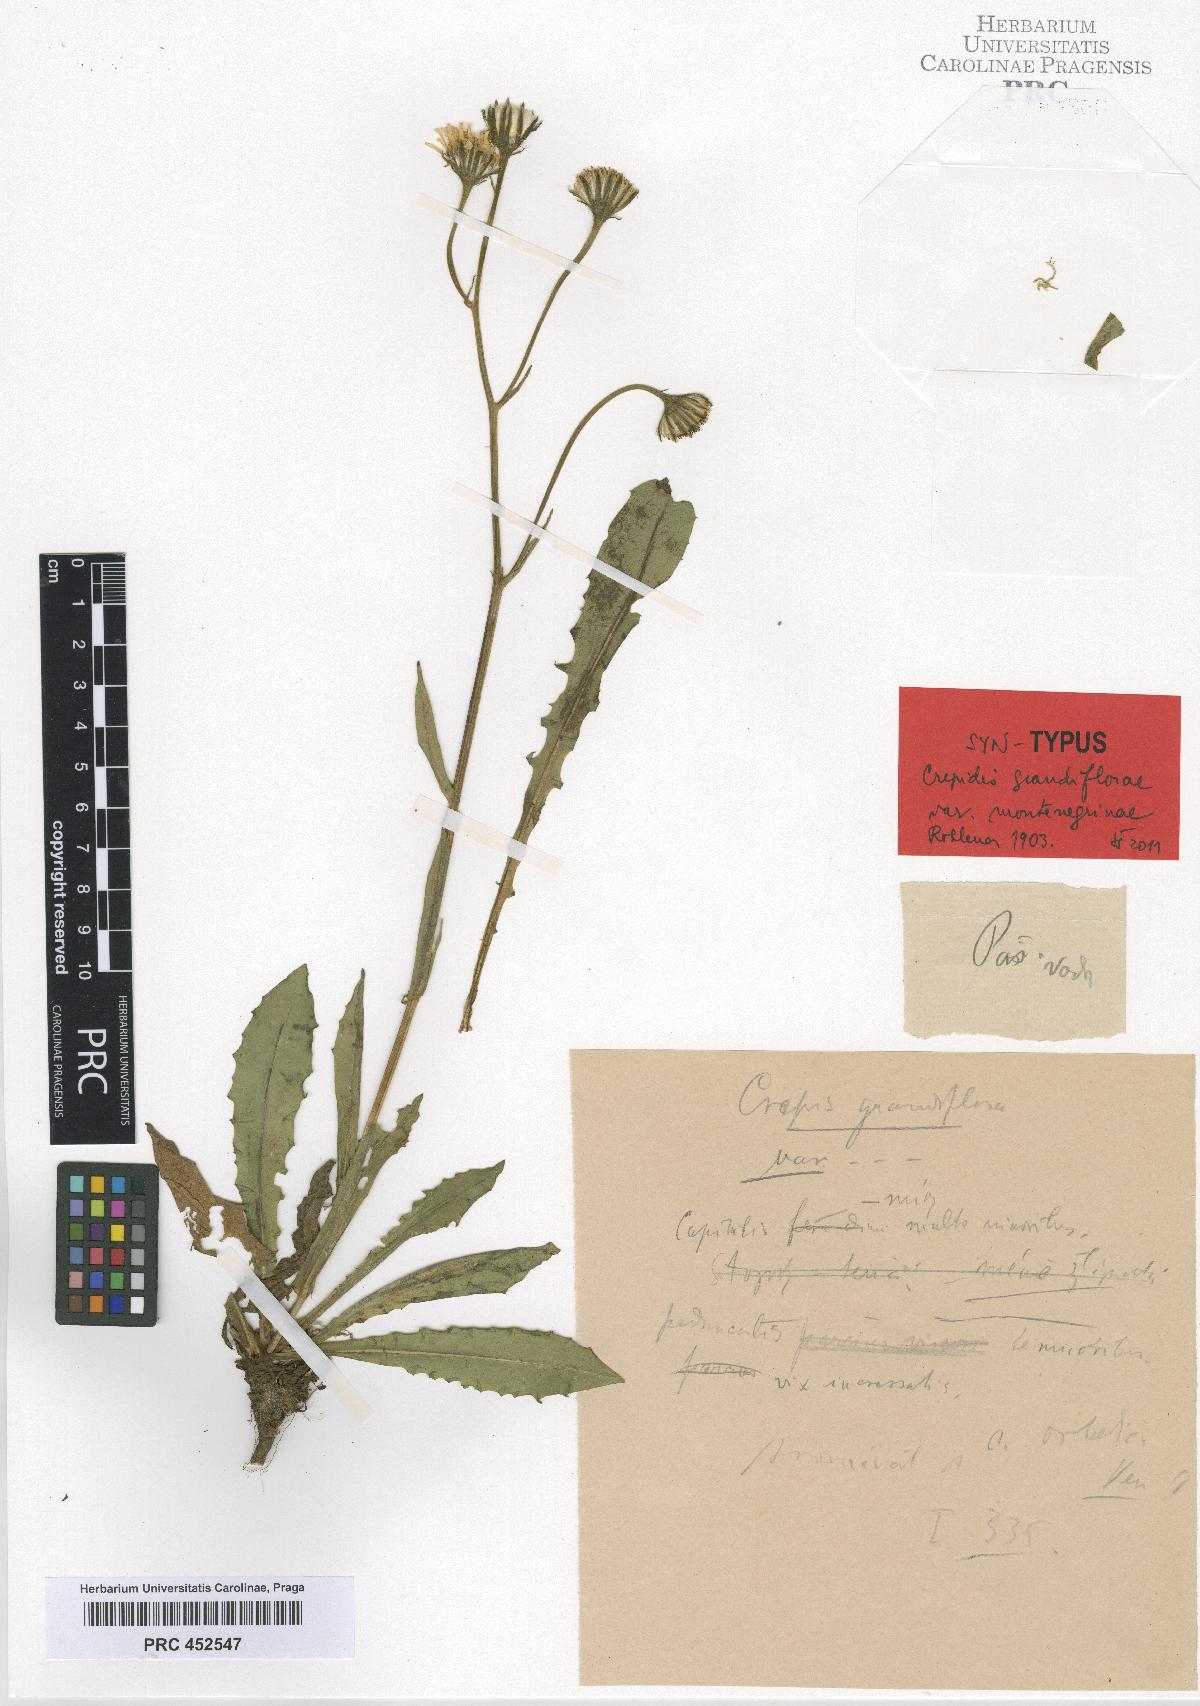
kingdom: Plantae
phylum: Tracheophyta
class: Magnoliopsida
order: Asterales
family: Asteraceae
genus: Crepis
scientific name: Crepis pyrenaica
